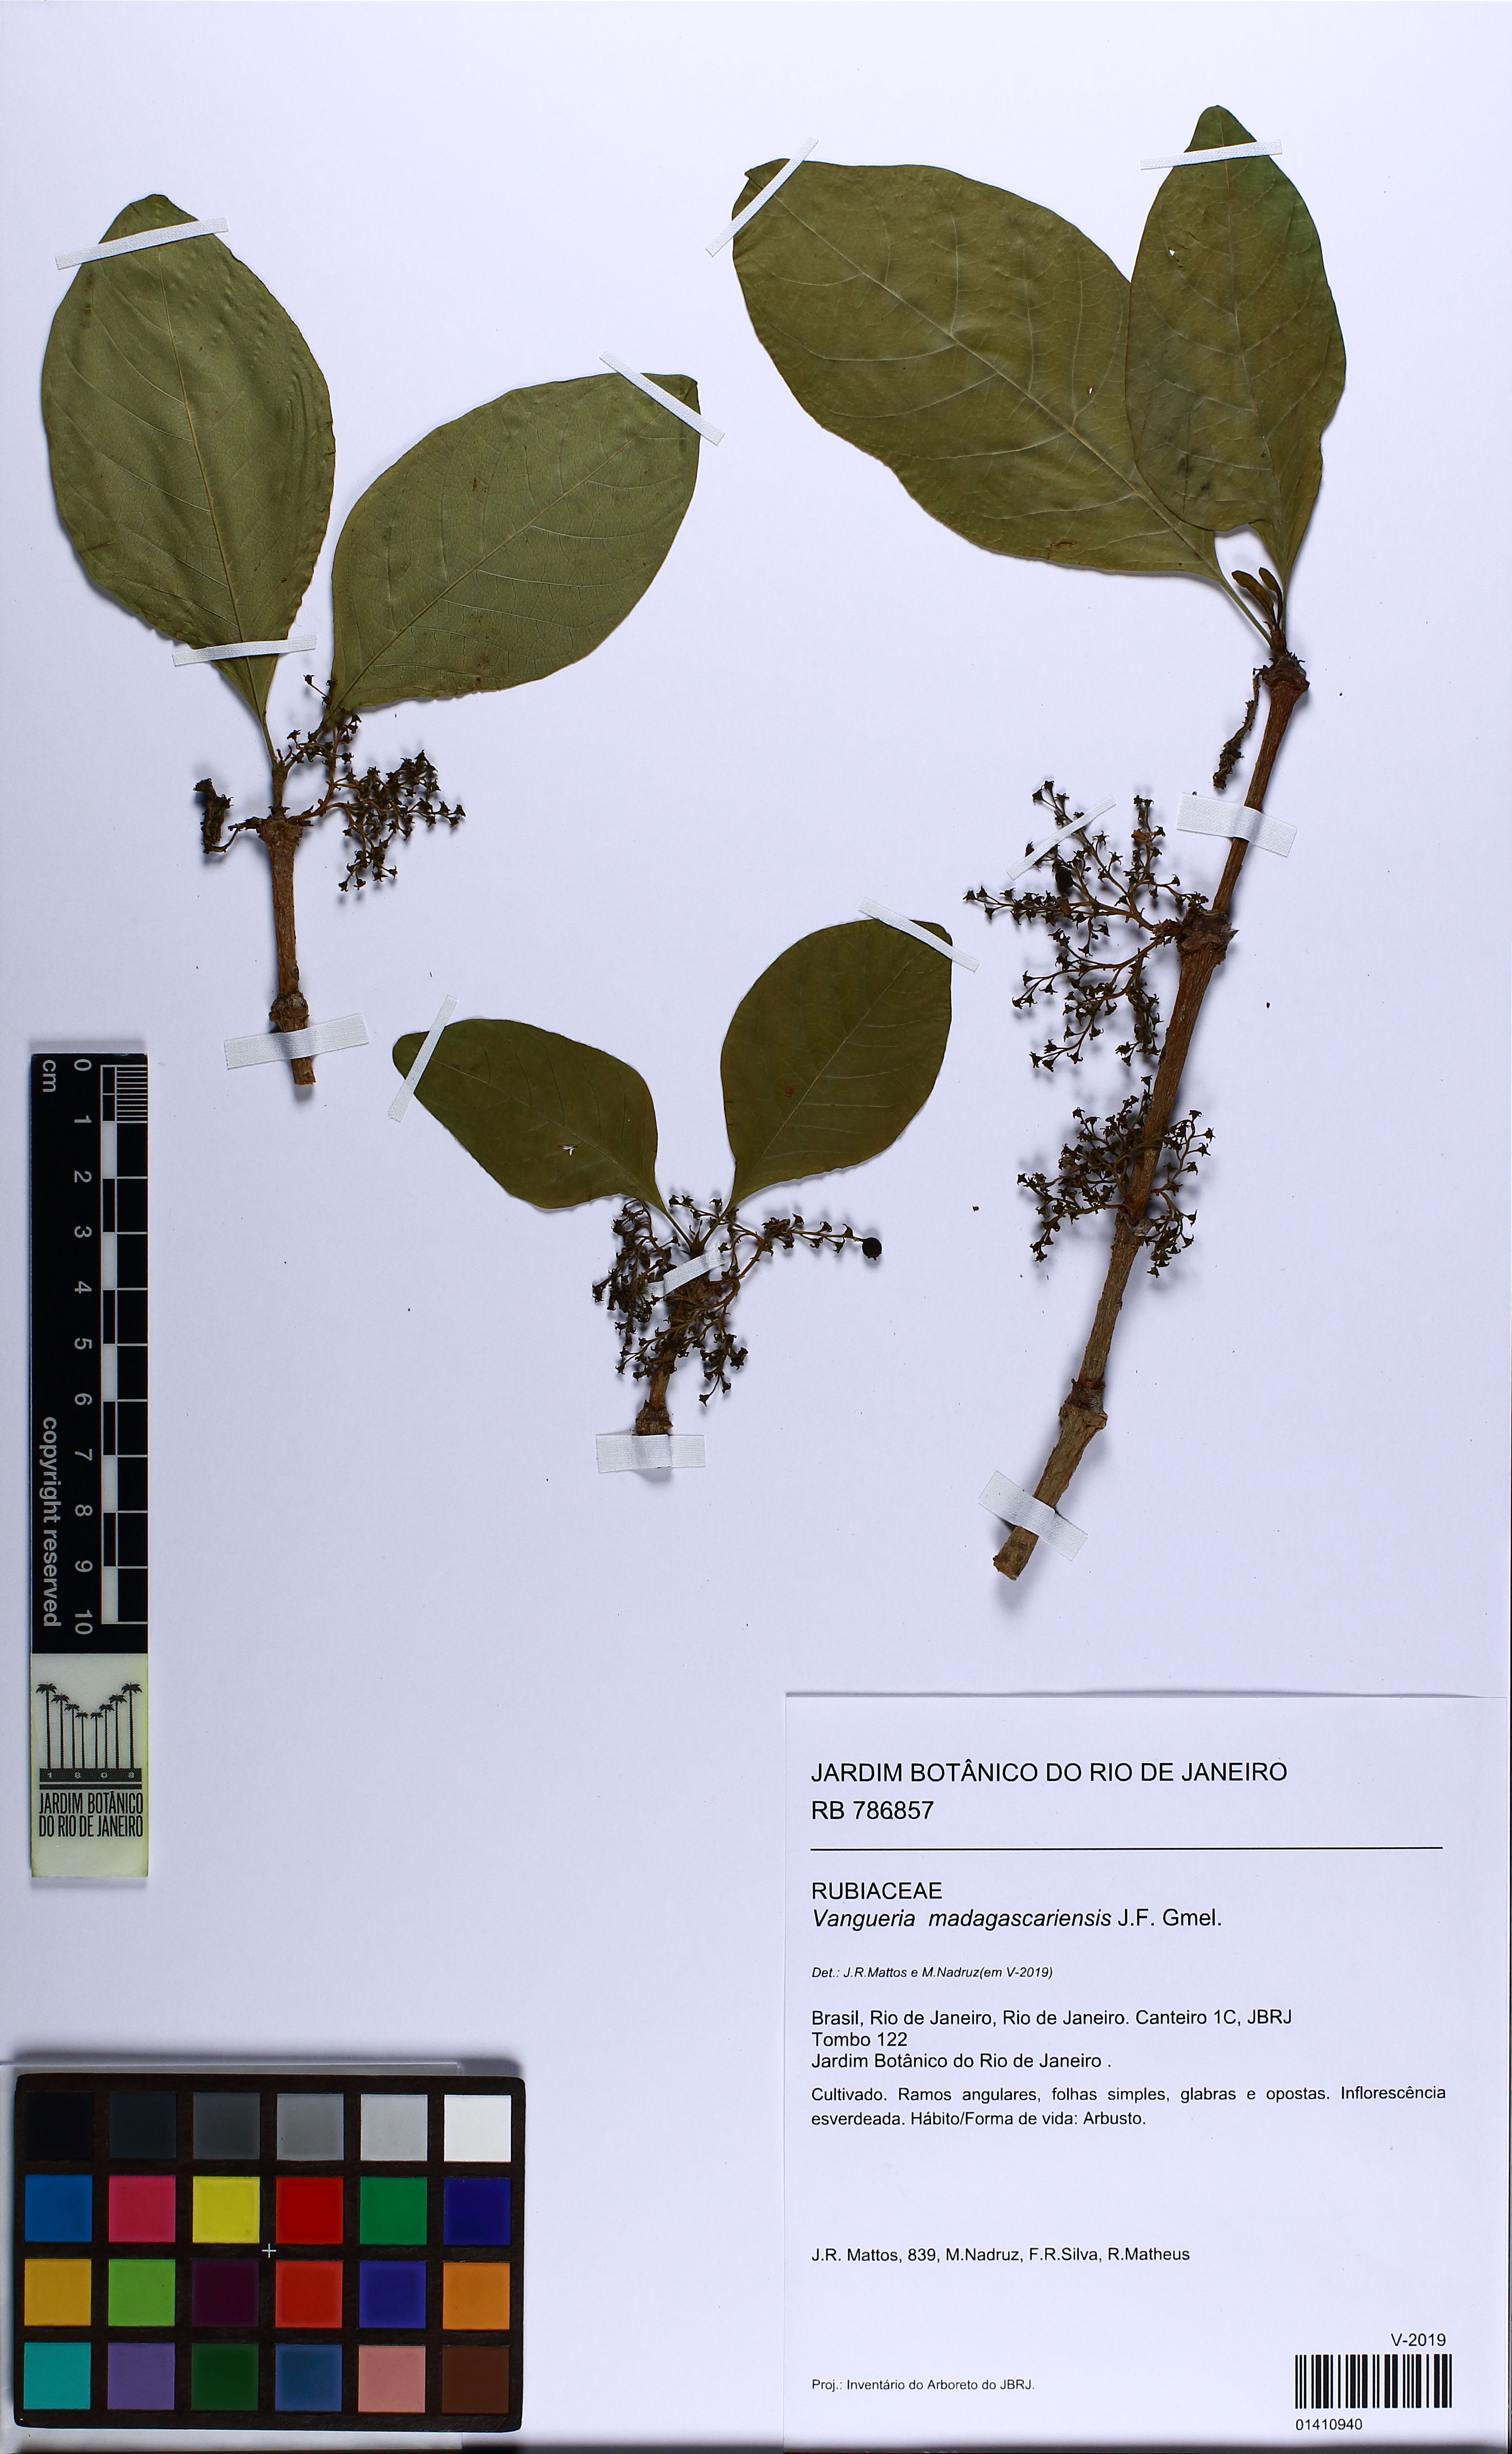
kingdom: Plantae
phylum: Tracheophyta
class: Magnoliopsida
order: Gentianales
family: Rubiaceae
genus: Vangueria
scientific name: Vangueria madagascariensis
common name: Smooth wild-medlar
